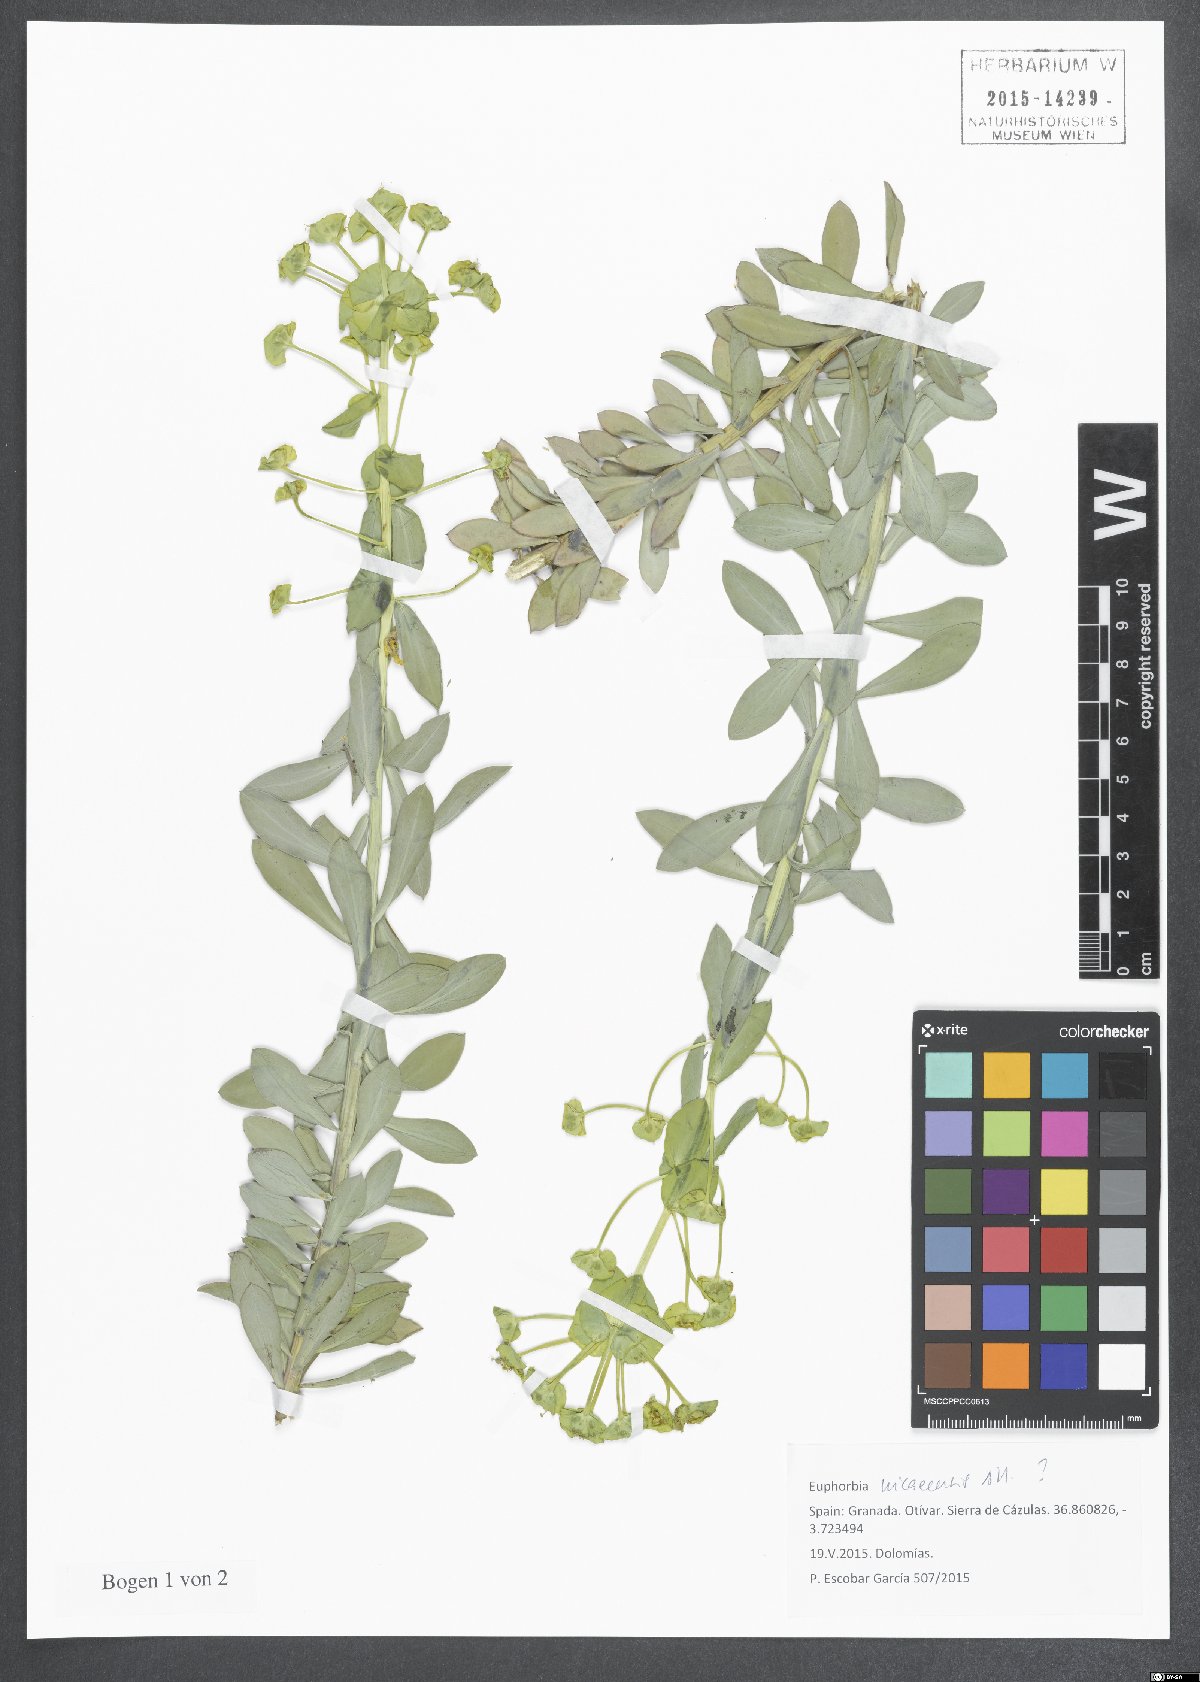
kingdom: Plantae
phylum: Tracheophyta
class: Magnoliopsida
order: Malpighiales
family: Euphorbiaceae
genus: Euphorbia
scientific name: Euphorbia nicaeensis
